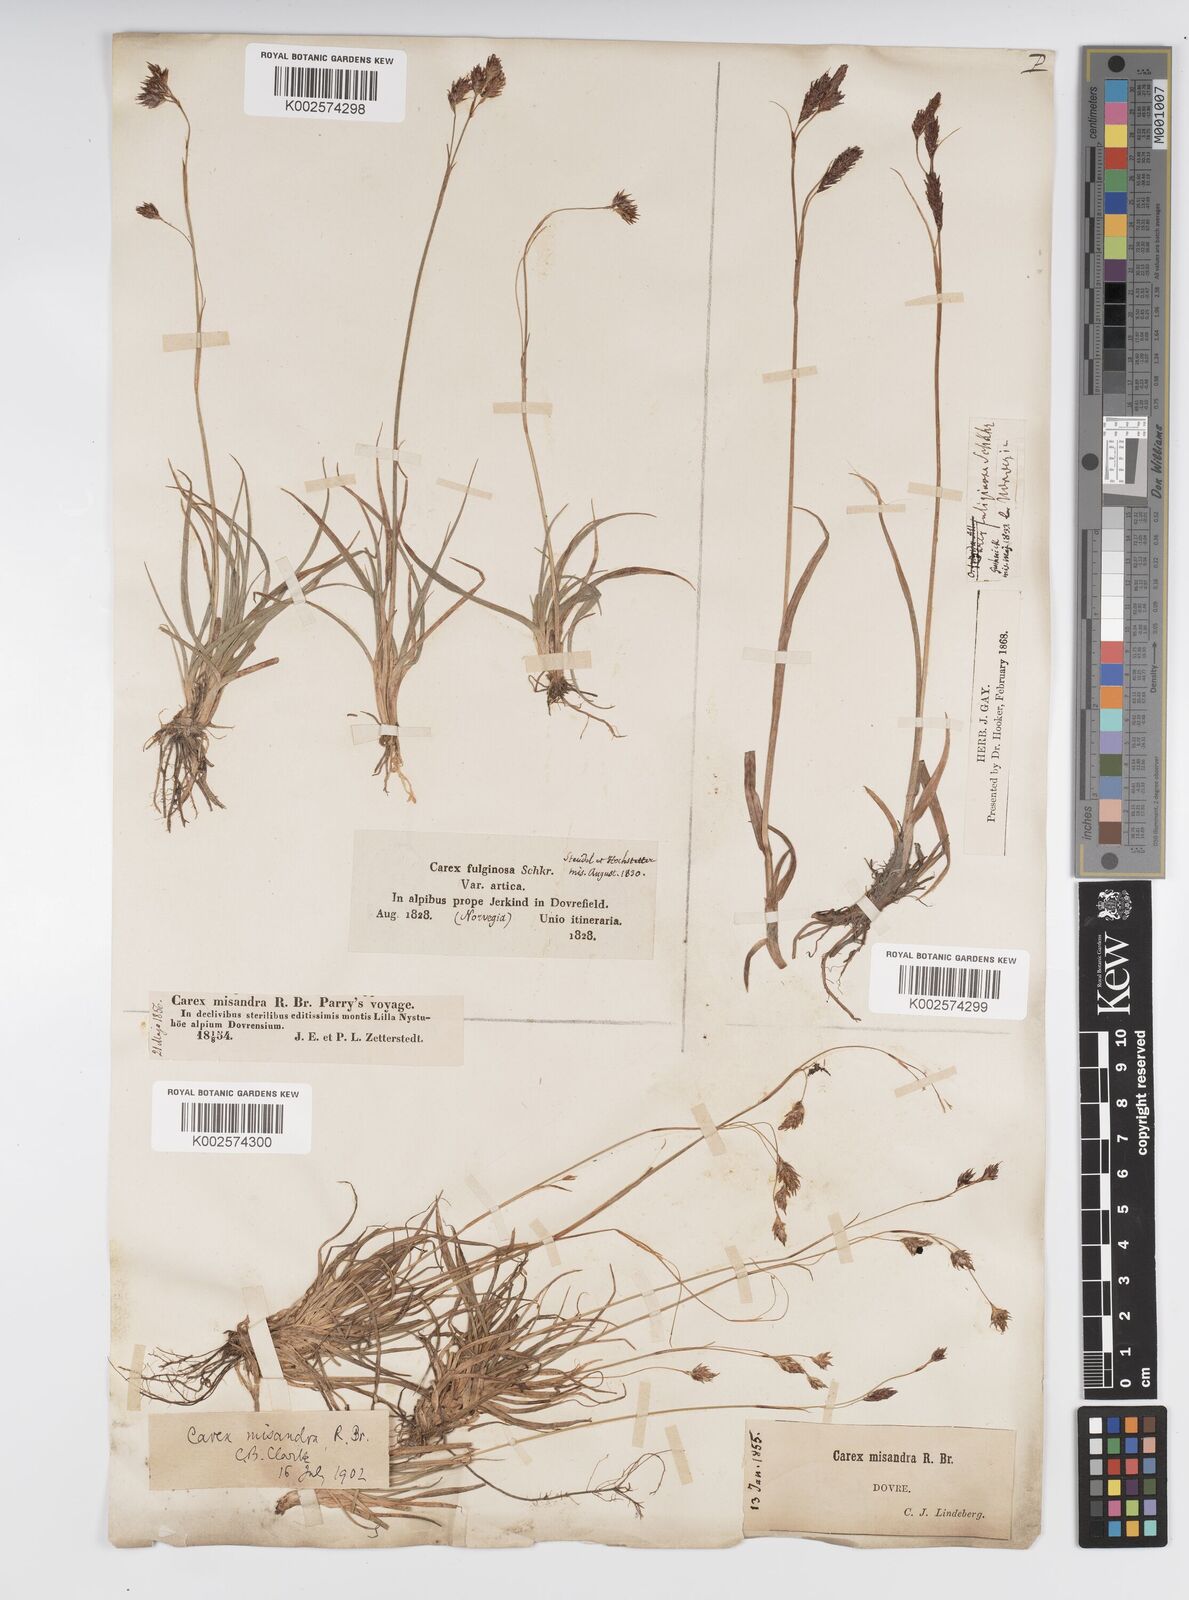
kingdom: Plantae
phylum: Tracheophyta
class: Liliopsida
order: Poales
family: Cyperaceae
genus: Carex
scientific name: Carex fuliginosa
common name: Few-flowered sedge
